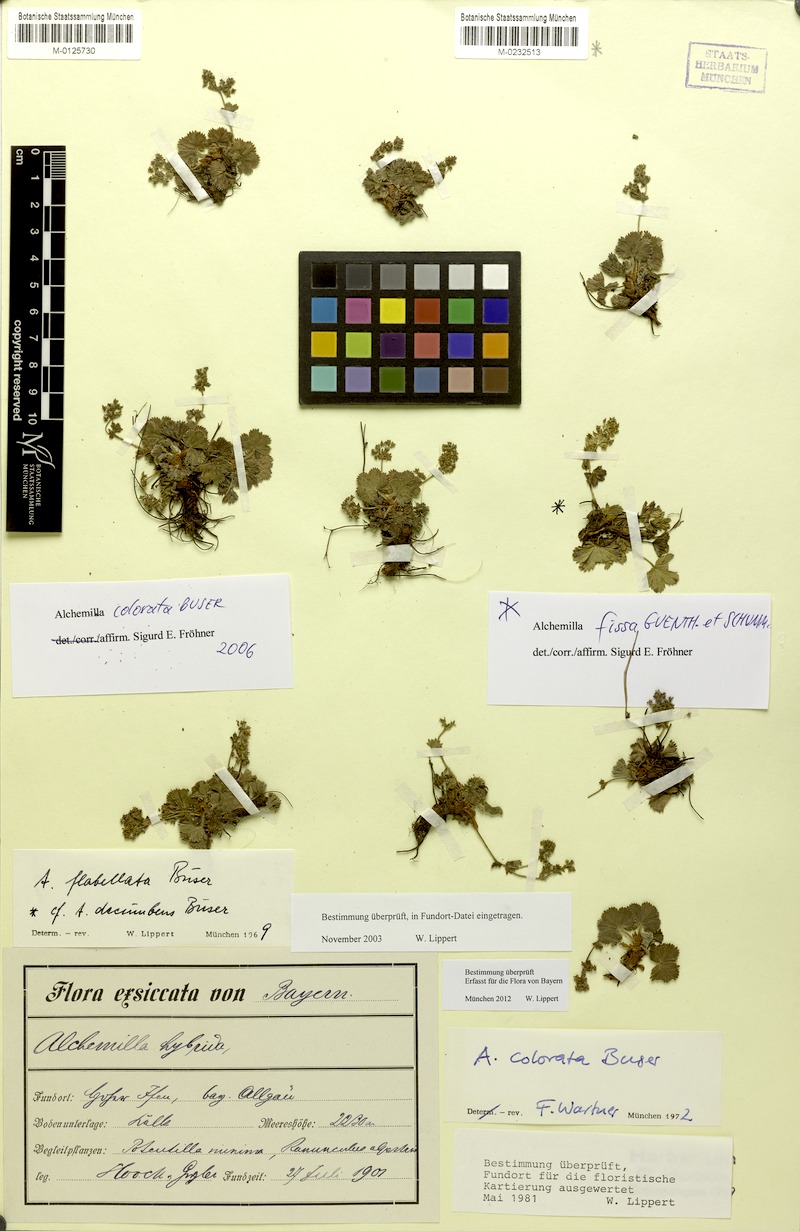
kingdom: Plantae
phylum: Tracheophyta
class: Magnoliopsida
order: Rosales
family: Rosaceae
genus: Alchemilla
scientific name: Alchemilla colorata
